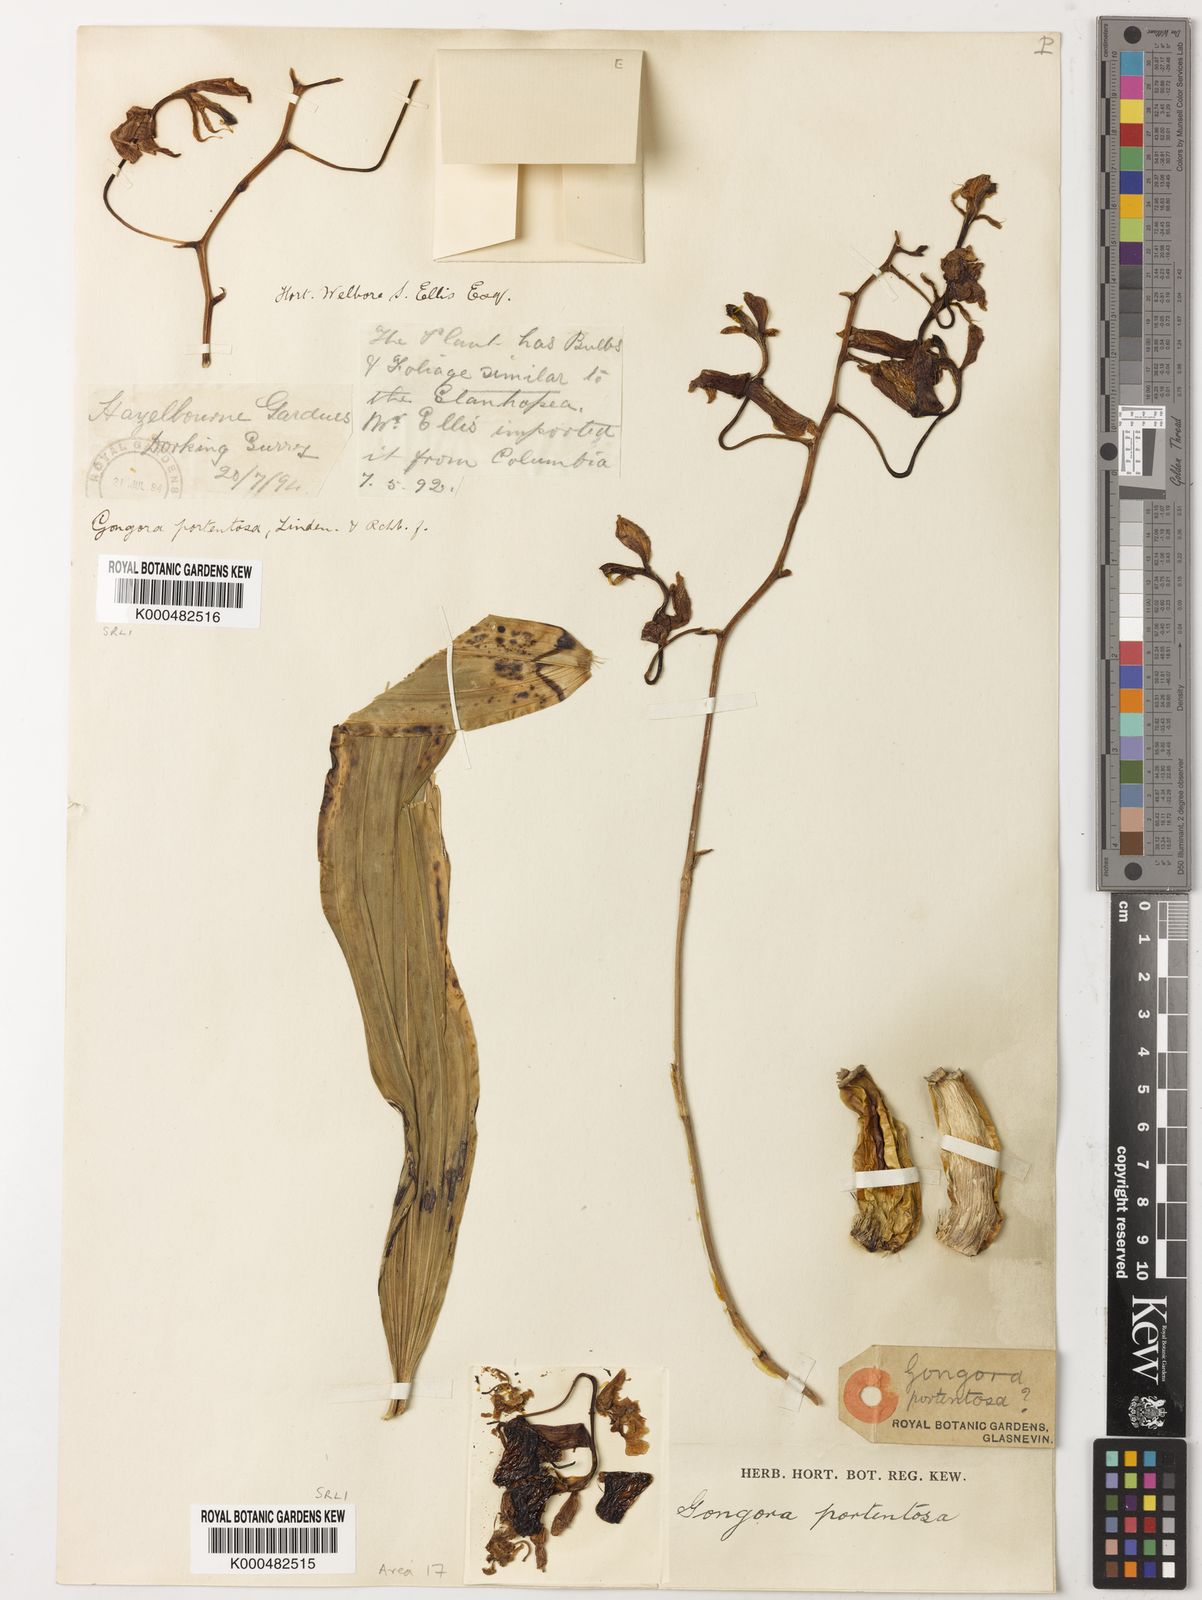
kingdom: Plantae
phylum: Tracheophyta
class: Liliopsida
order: Asparagales
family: Orchidaceae
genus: Gongora
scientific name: Gongora portentosa
